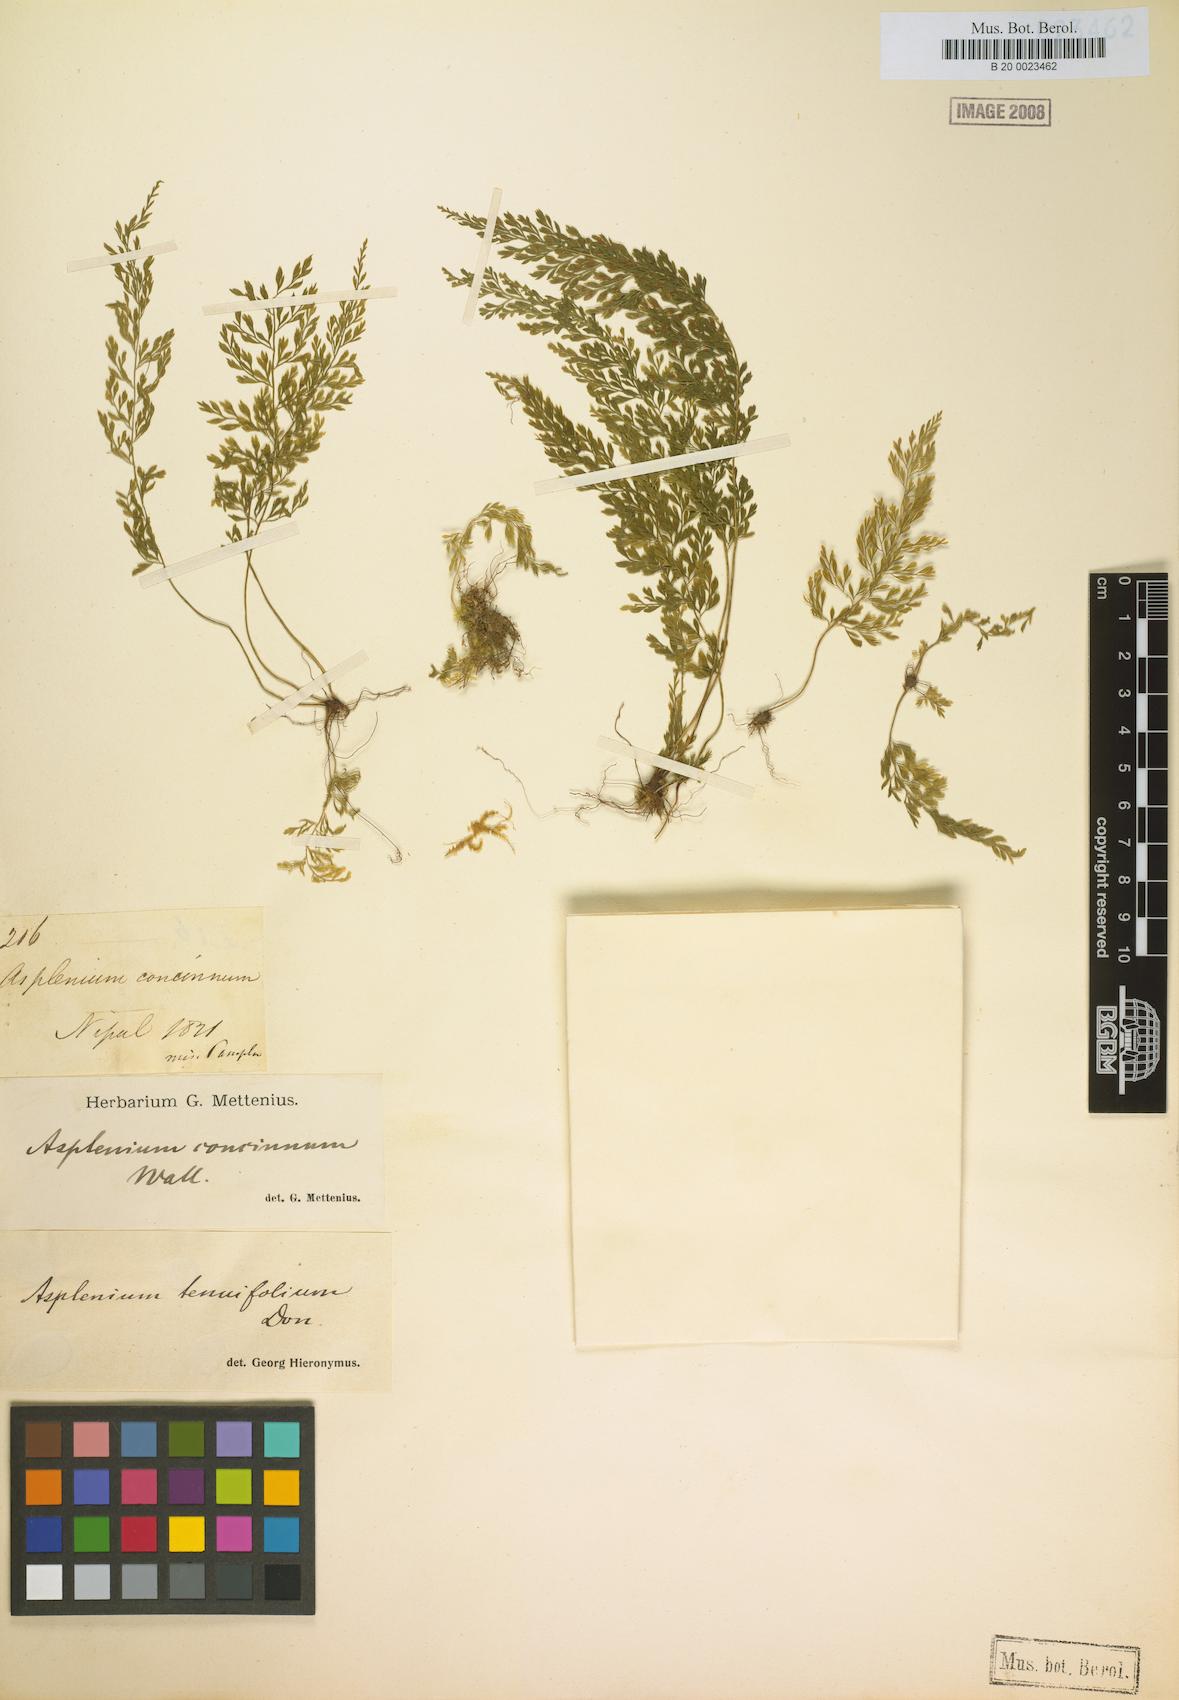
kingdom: Plantae
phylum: Tracheophyta
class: Polypodiopsida
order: Polypodiales
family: Aspleniaceae
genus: Asplenium
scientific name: Asplenium tenuifolium
